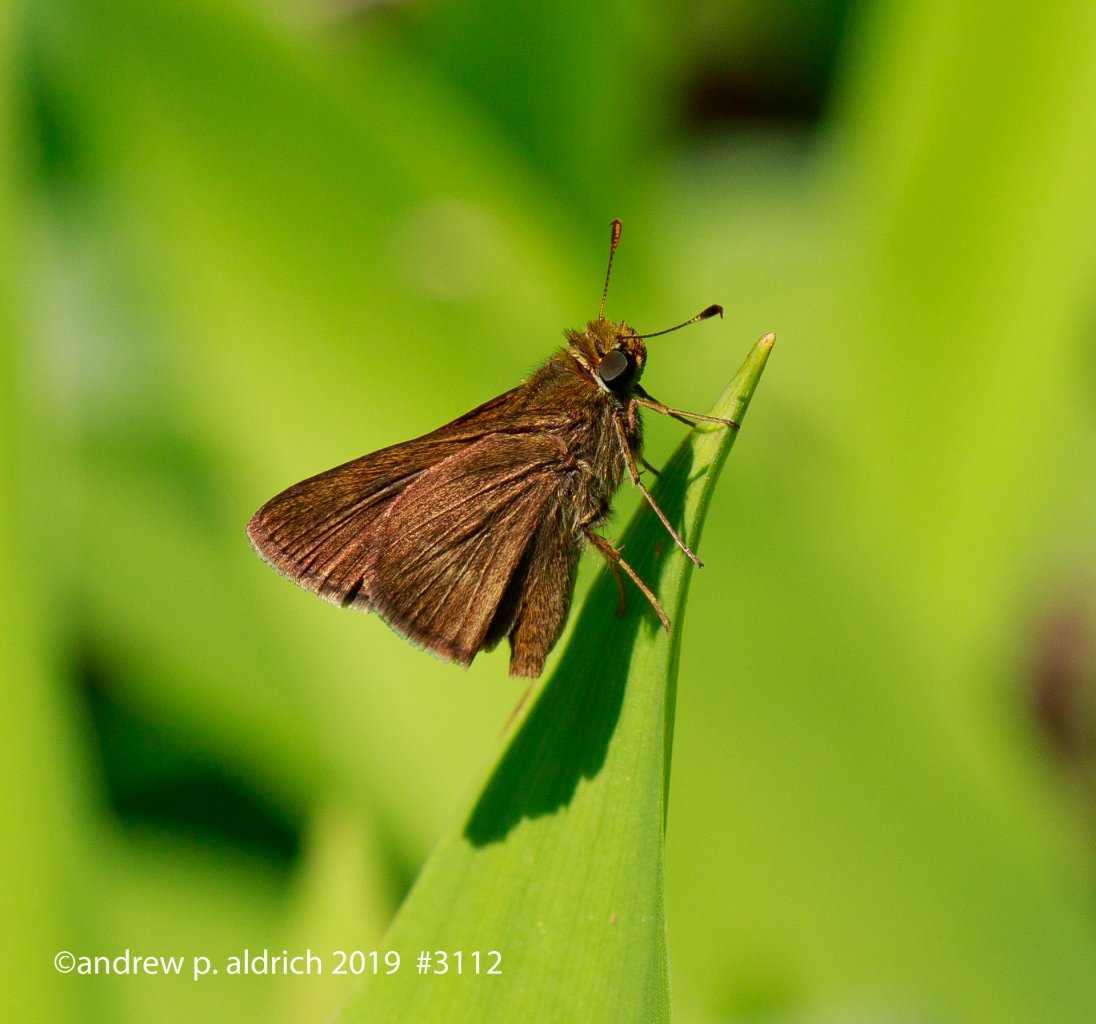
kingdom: Animalia
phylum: Arthropoda
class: Insecta
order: Lepidoptera
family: Hesperiidae
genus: Euphyes
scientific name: Euphyes vestris
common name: Dun Skipper
